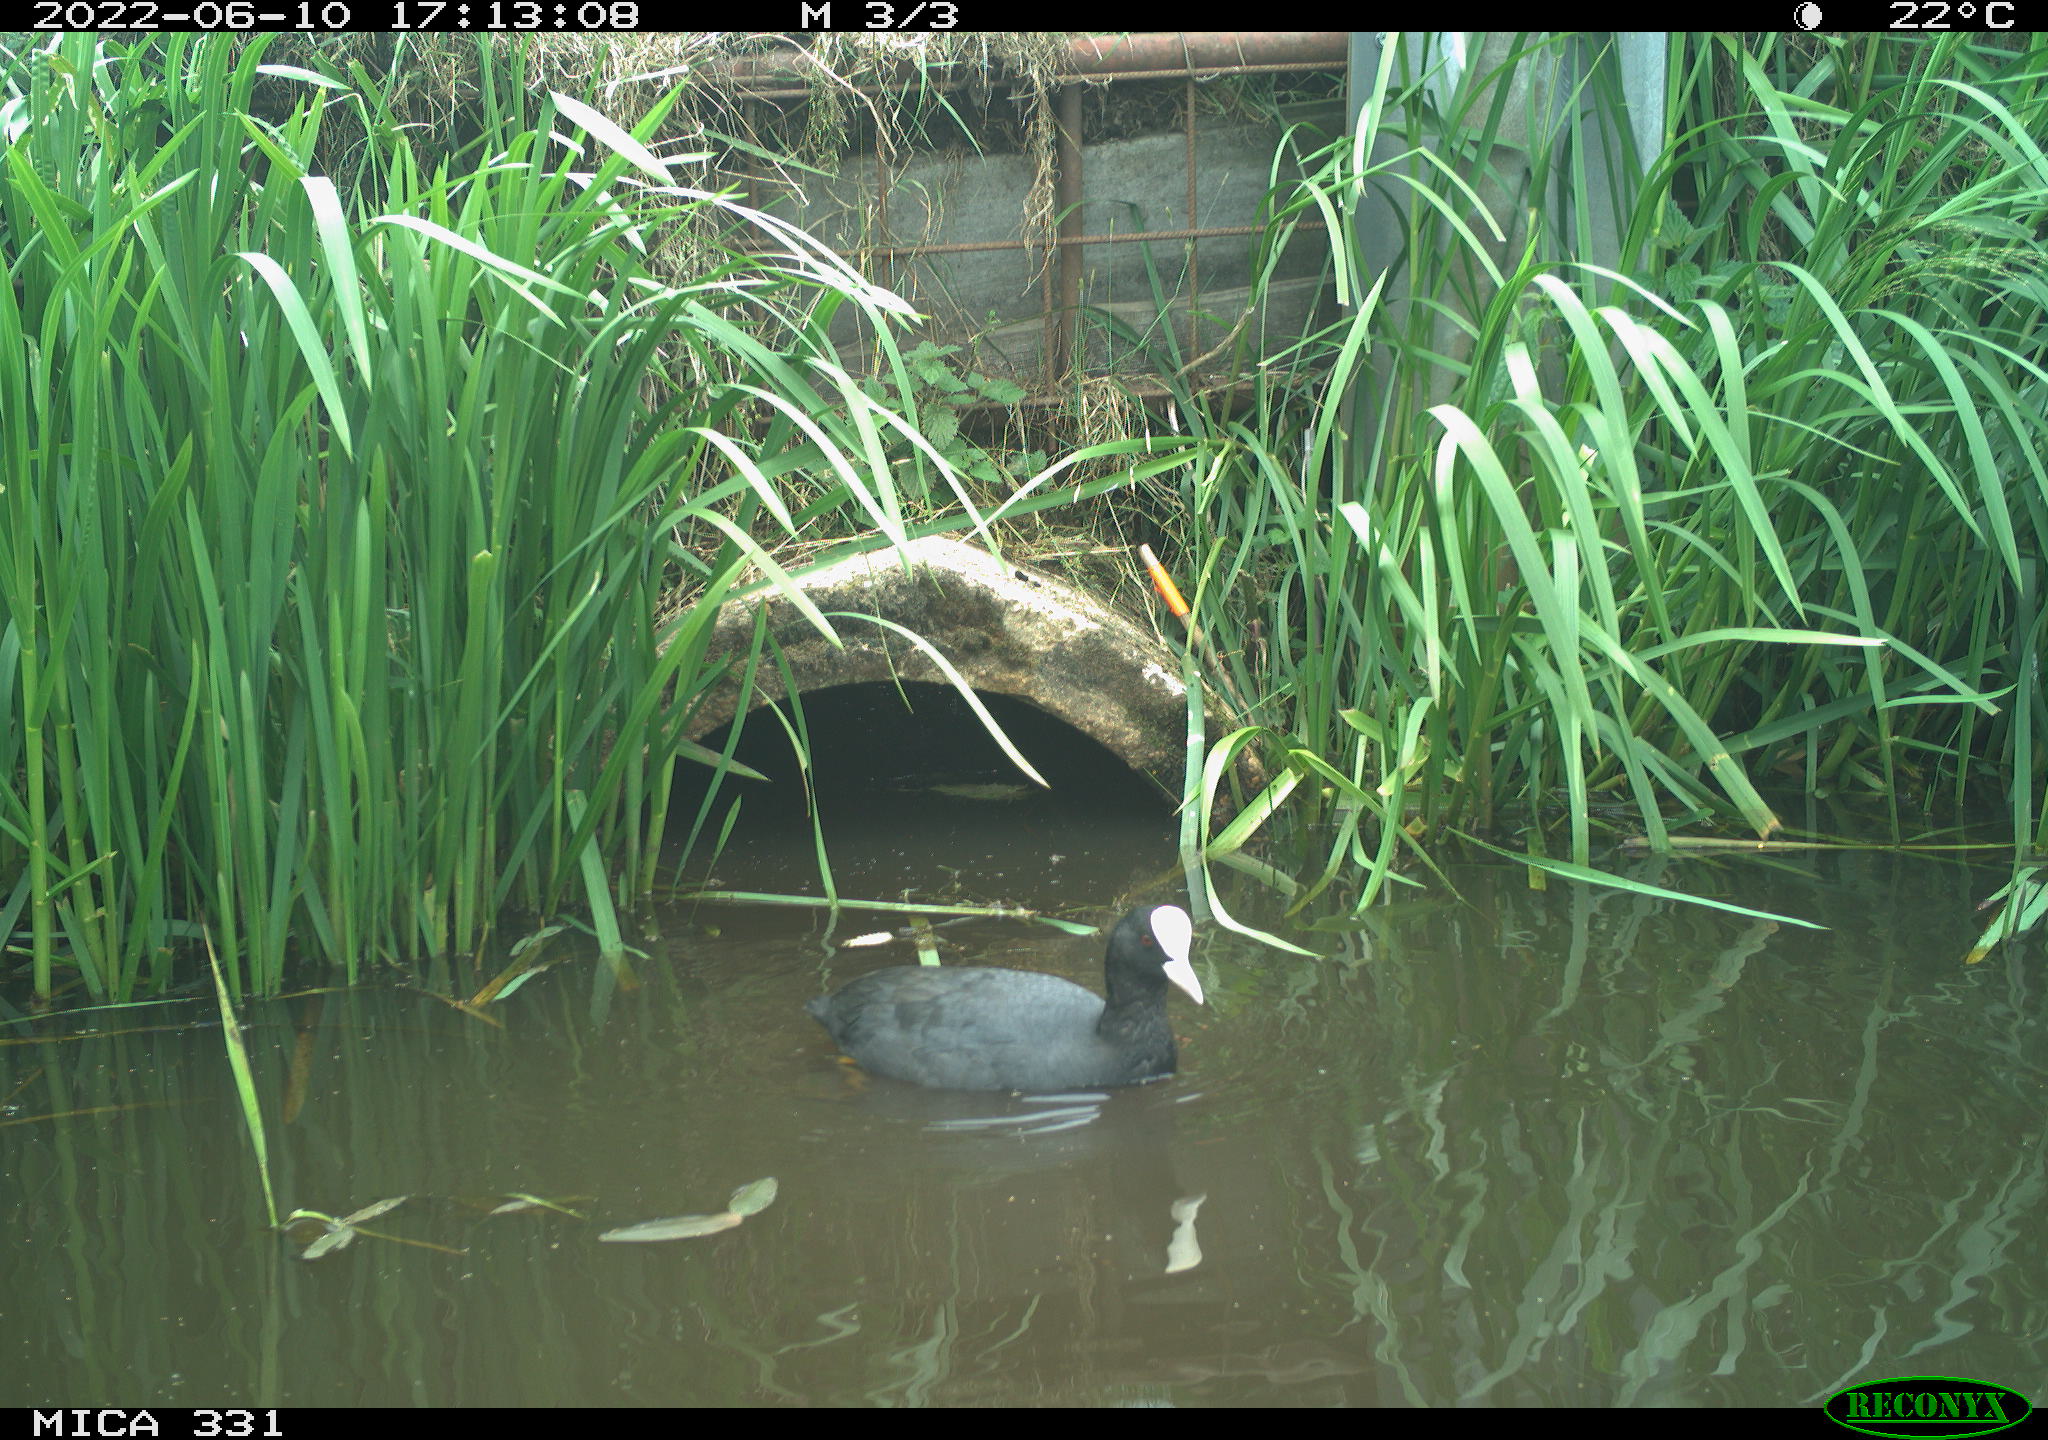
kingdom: Animalia
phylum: Chordata
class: Aves
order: Gruiformes
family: Rallidae
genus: Fulica
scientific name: Fulica atra
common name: Eurasian coot
